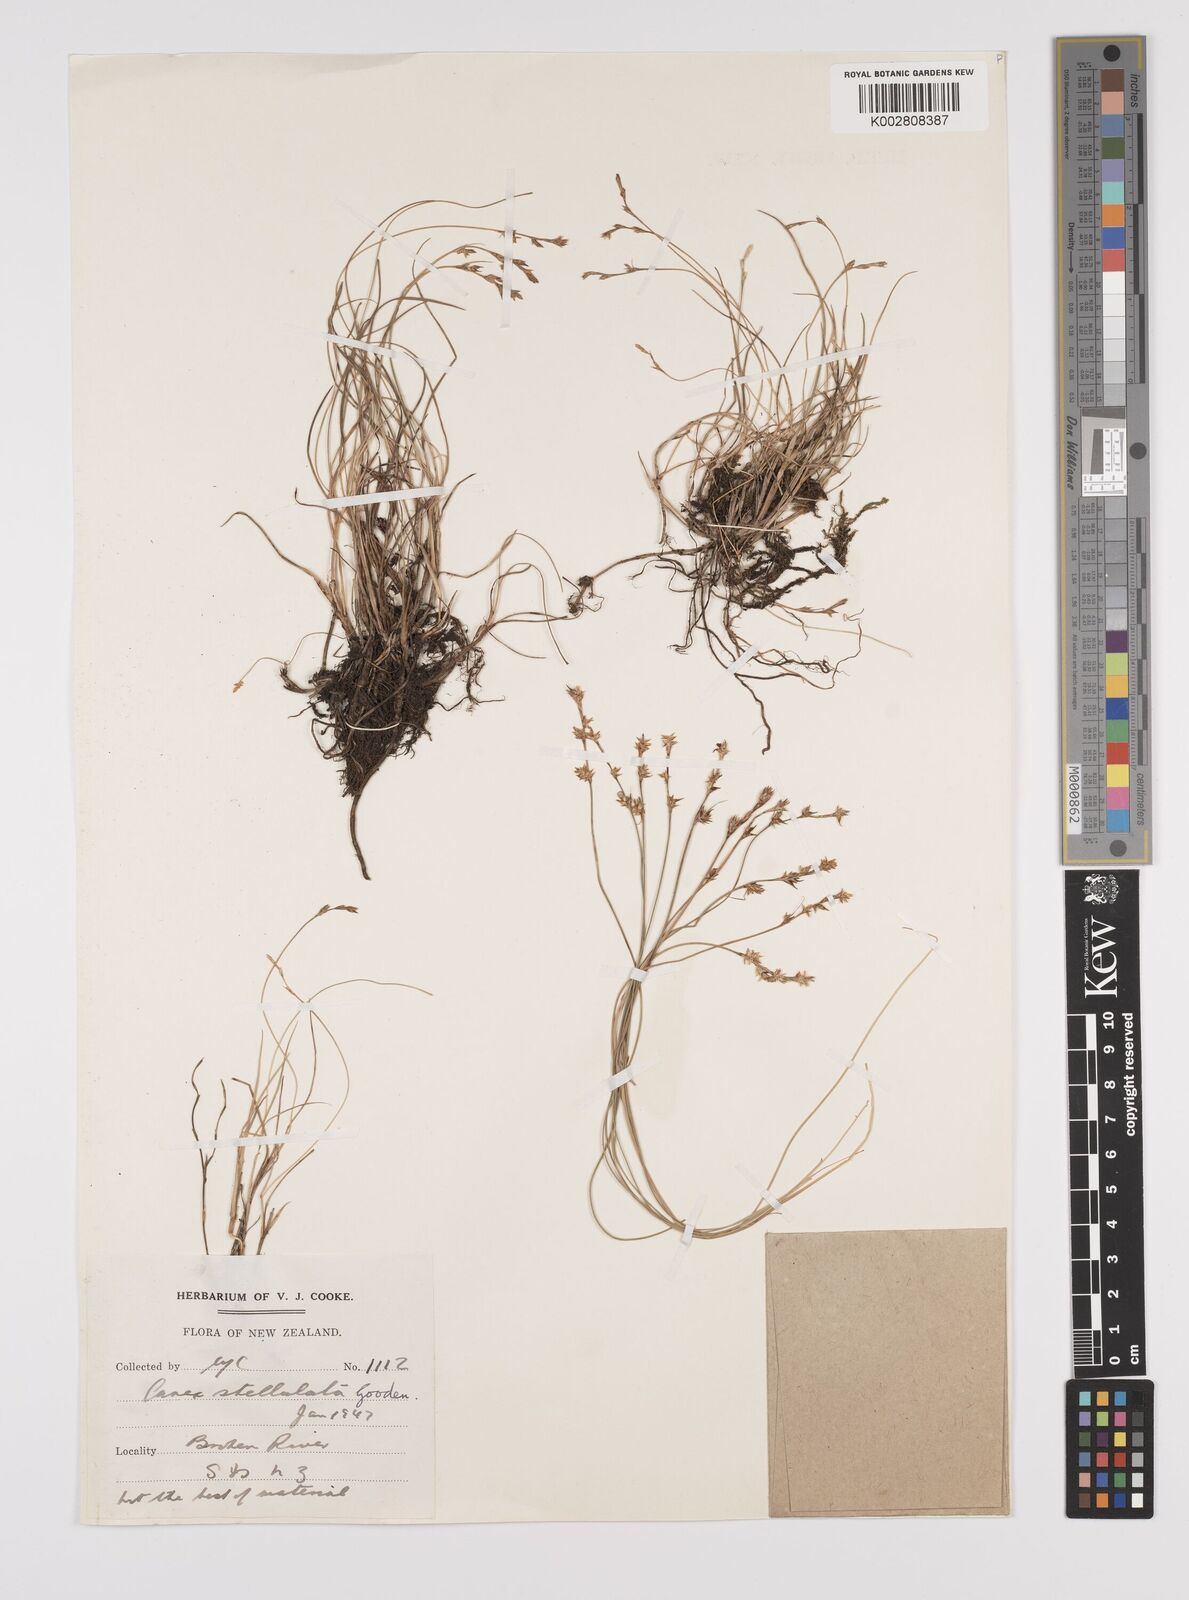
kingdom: Plantae
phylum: Tracheophyta
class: Liliopsida
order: Poales
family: Cyperaceae
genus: Carex
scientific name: Carex echinata
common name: Star sedge
